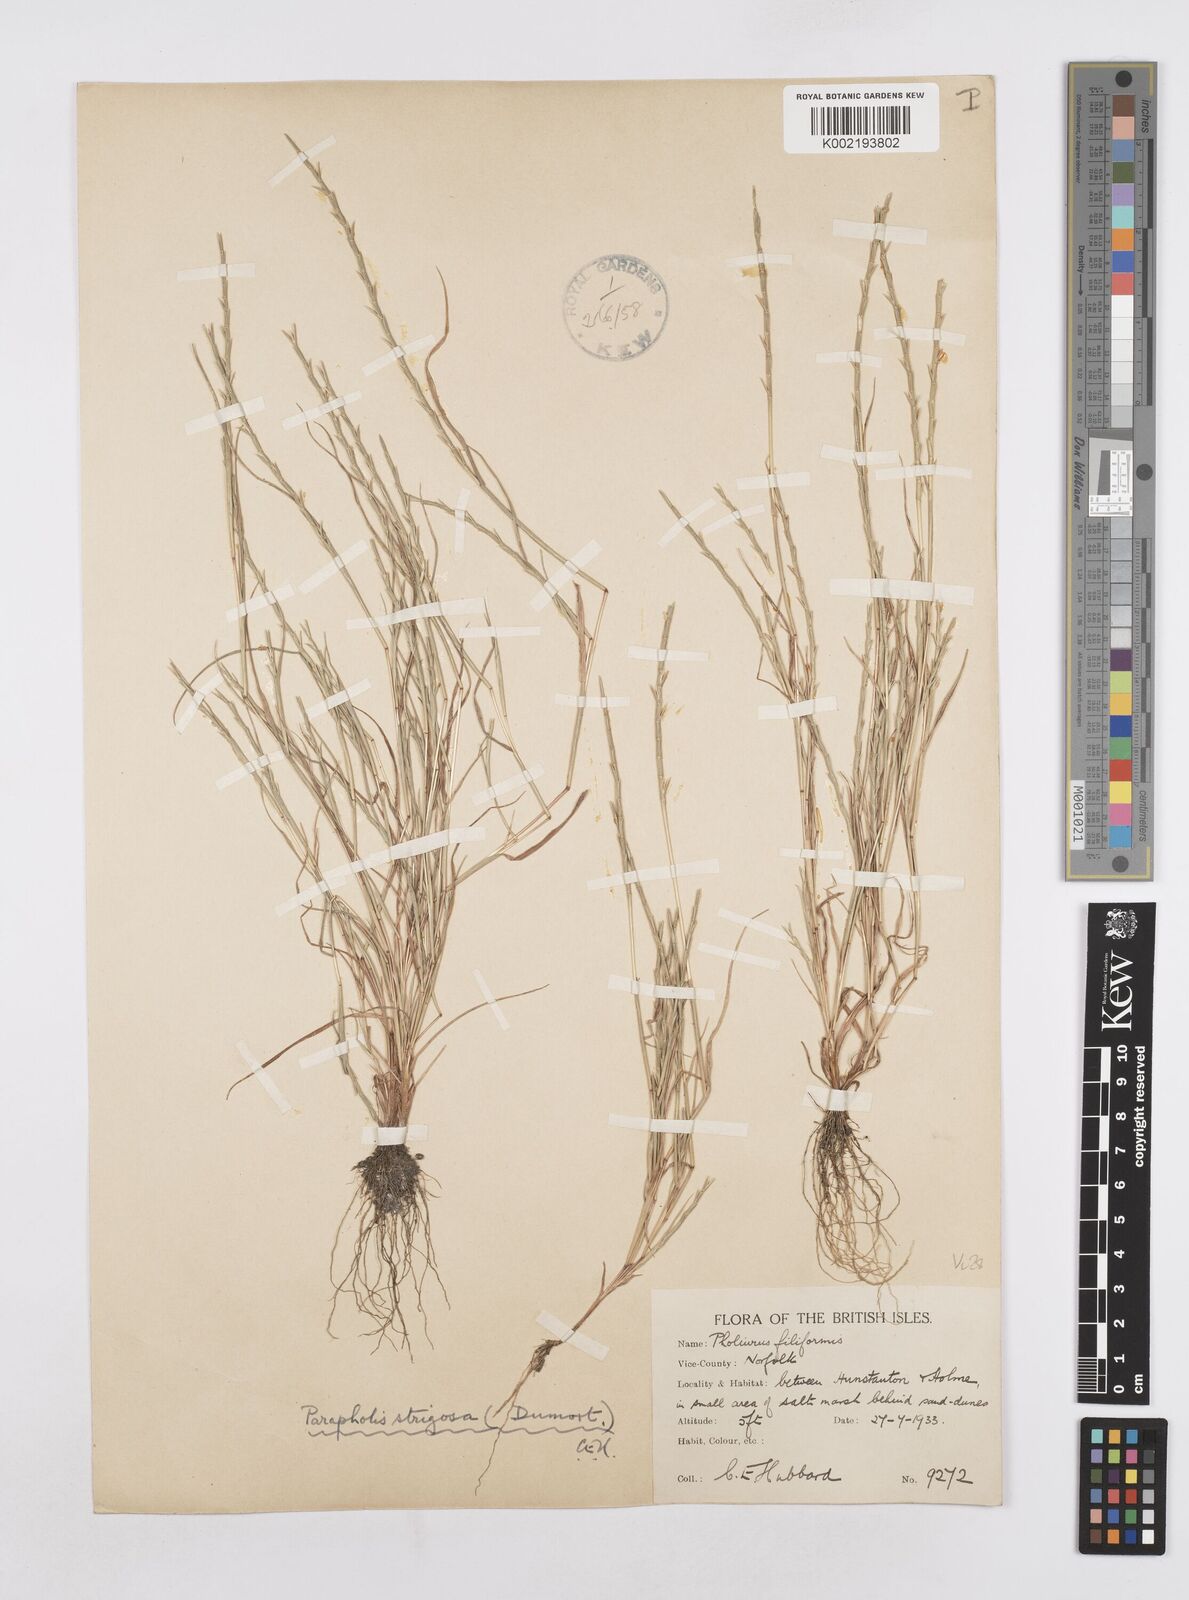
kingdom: Plantae
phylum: Tracheophyta
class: Liliopsida
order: Poales
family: Poaceae
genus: Parapholis
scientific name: Parapholis strigosa
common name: Hard-grass
